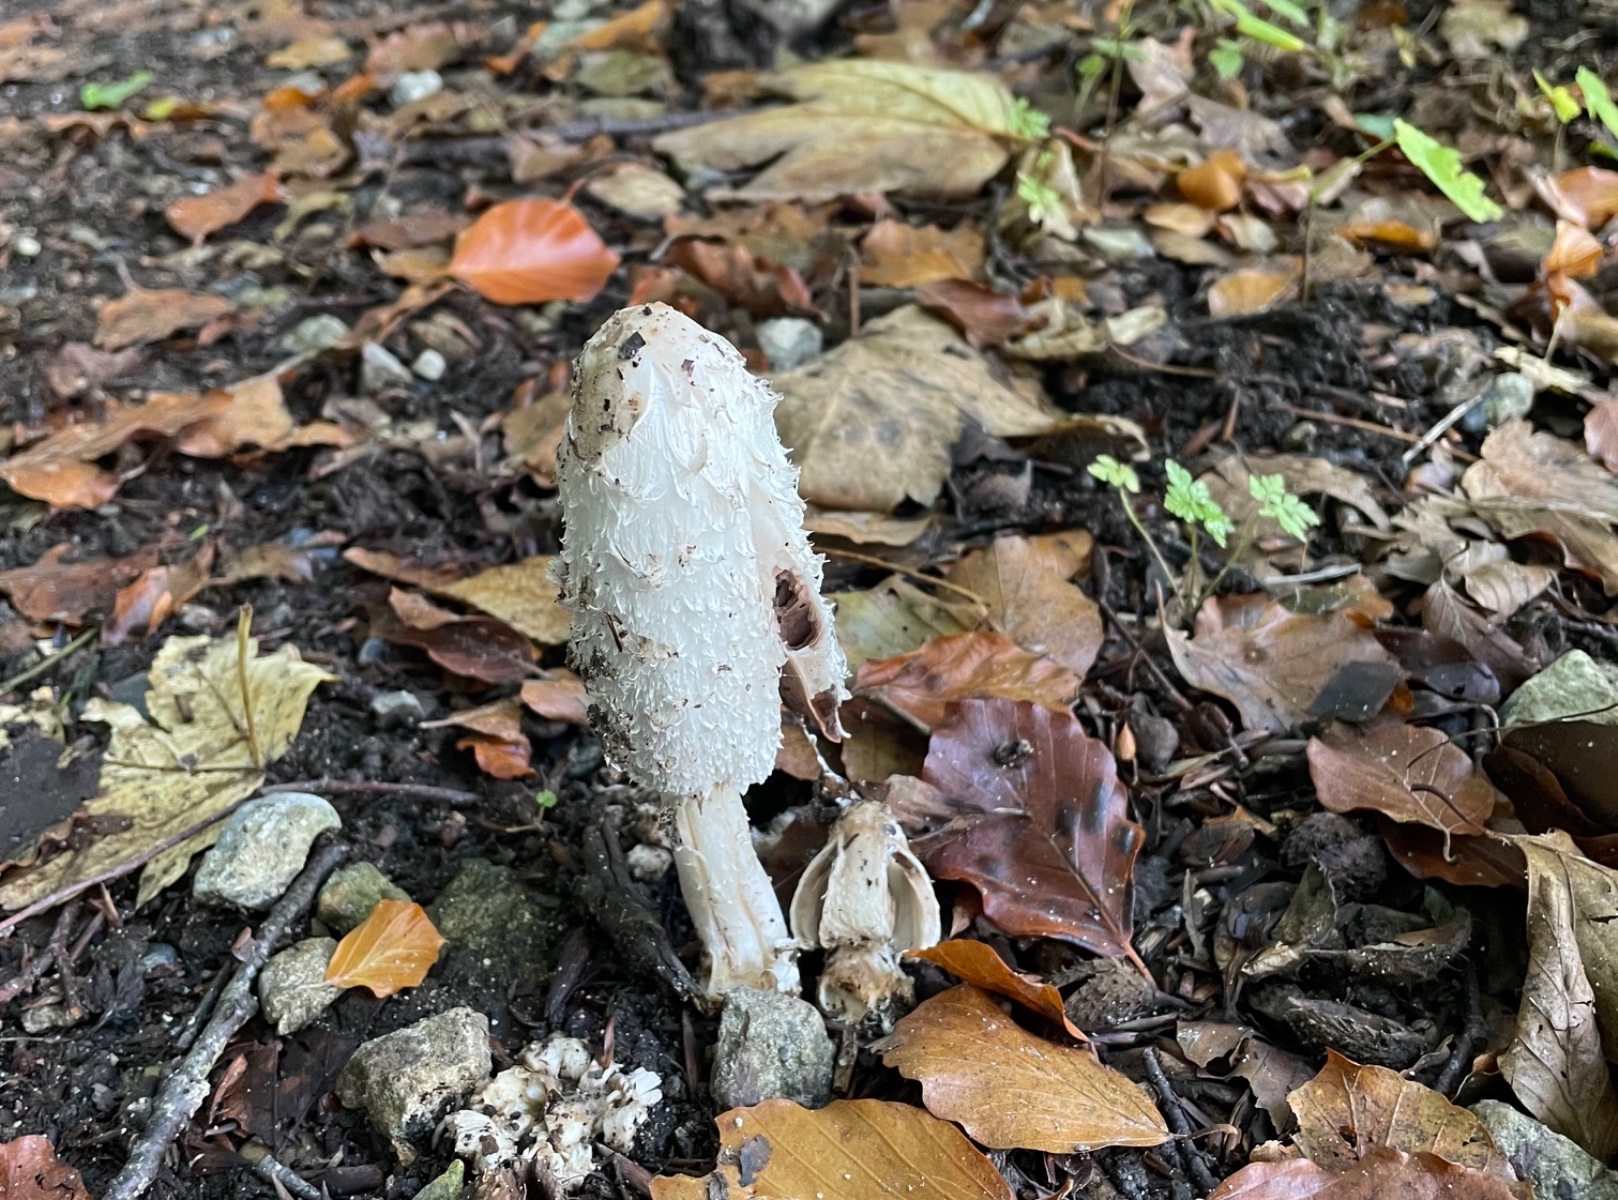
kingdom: Fungi
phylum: Basidiomycota
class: Agaricomycetes
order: Agaricales
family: Agaricaceae
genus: Coprinus
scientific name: Coprinus comatus
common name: stor parykhat
